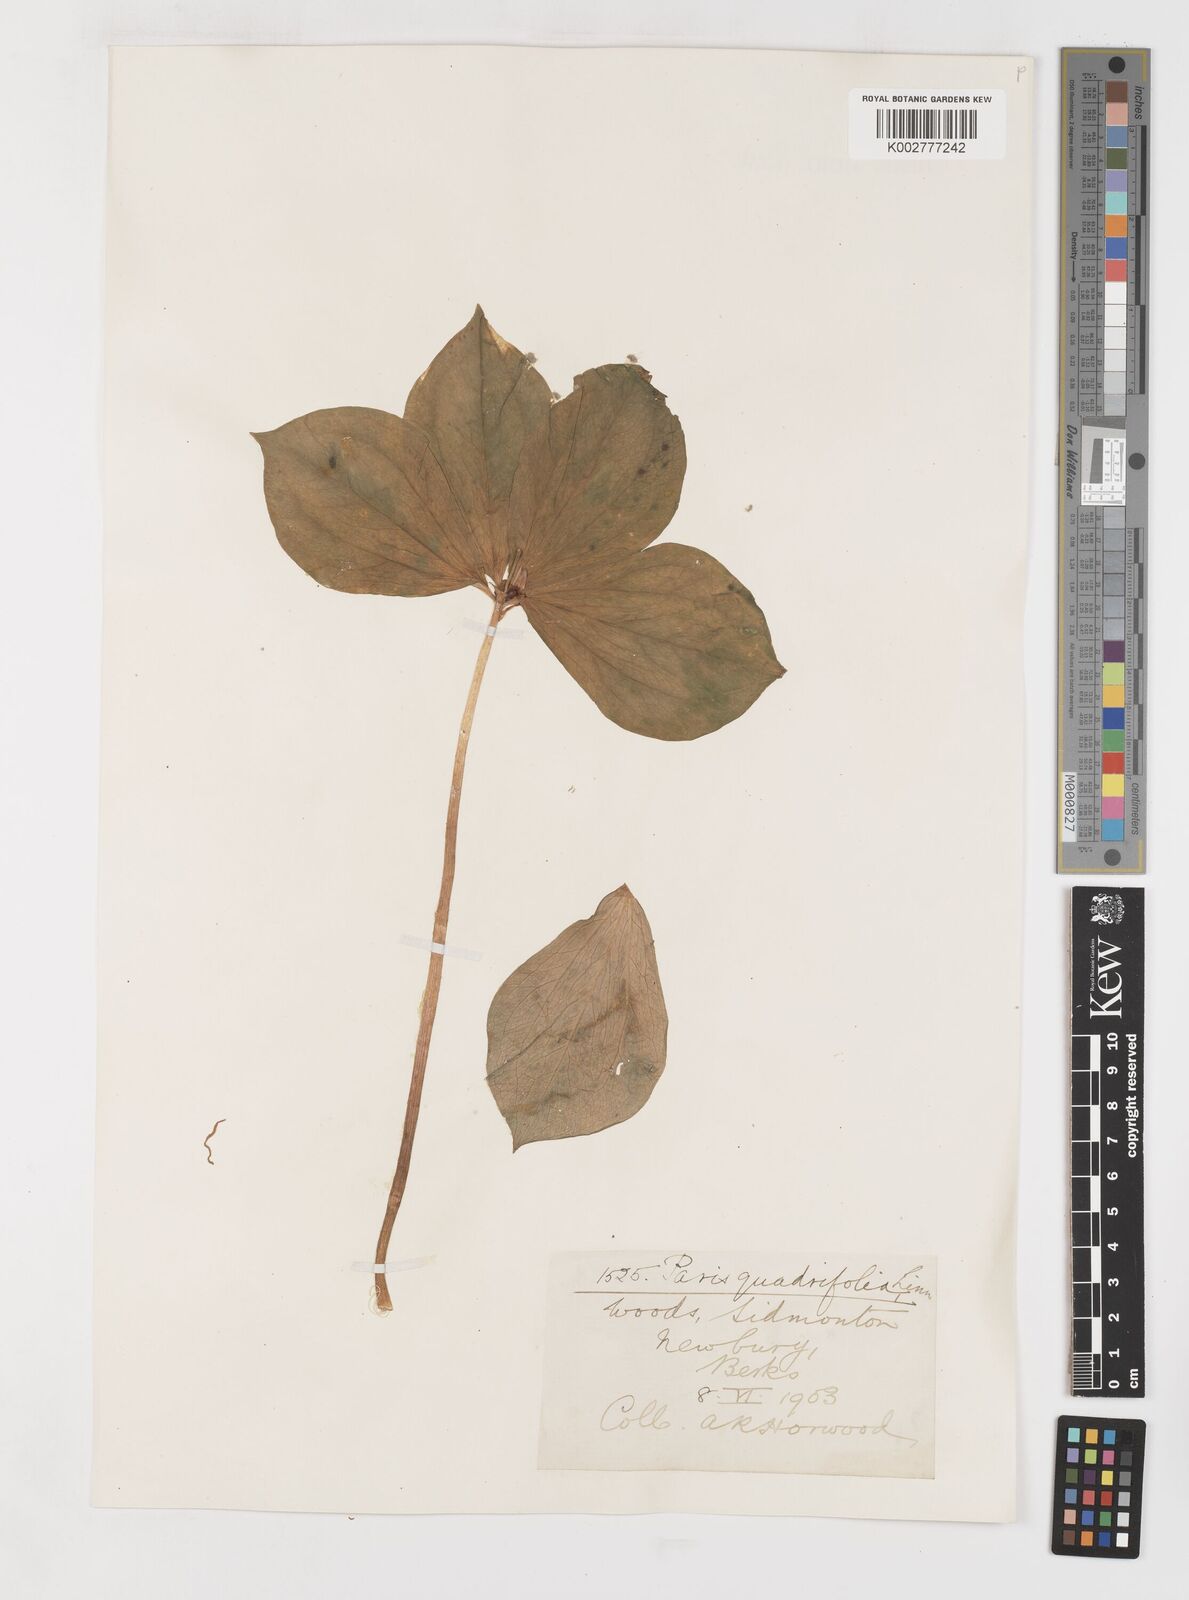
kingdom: Plantae
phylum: Tracheophyta
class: Liliopsida
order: Liliales
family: Melanthiaceae
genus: Paris
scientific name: Paris
